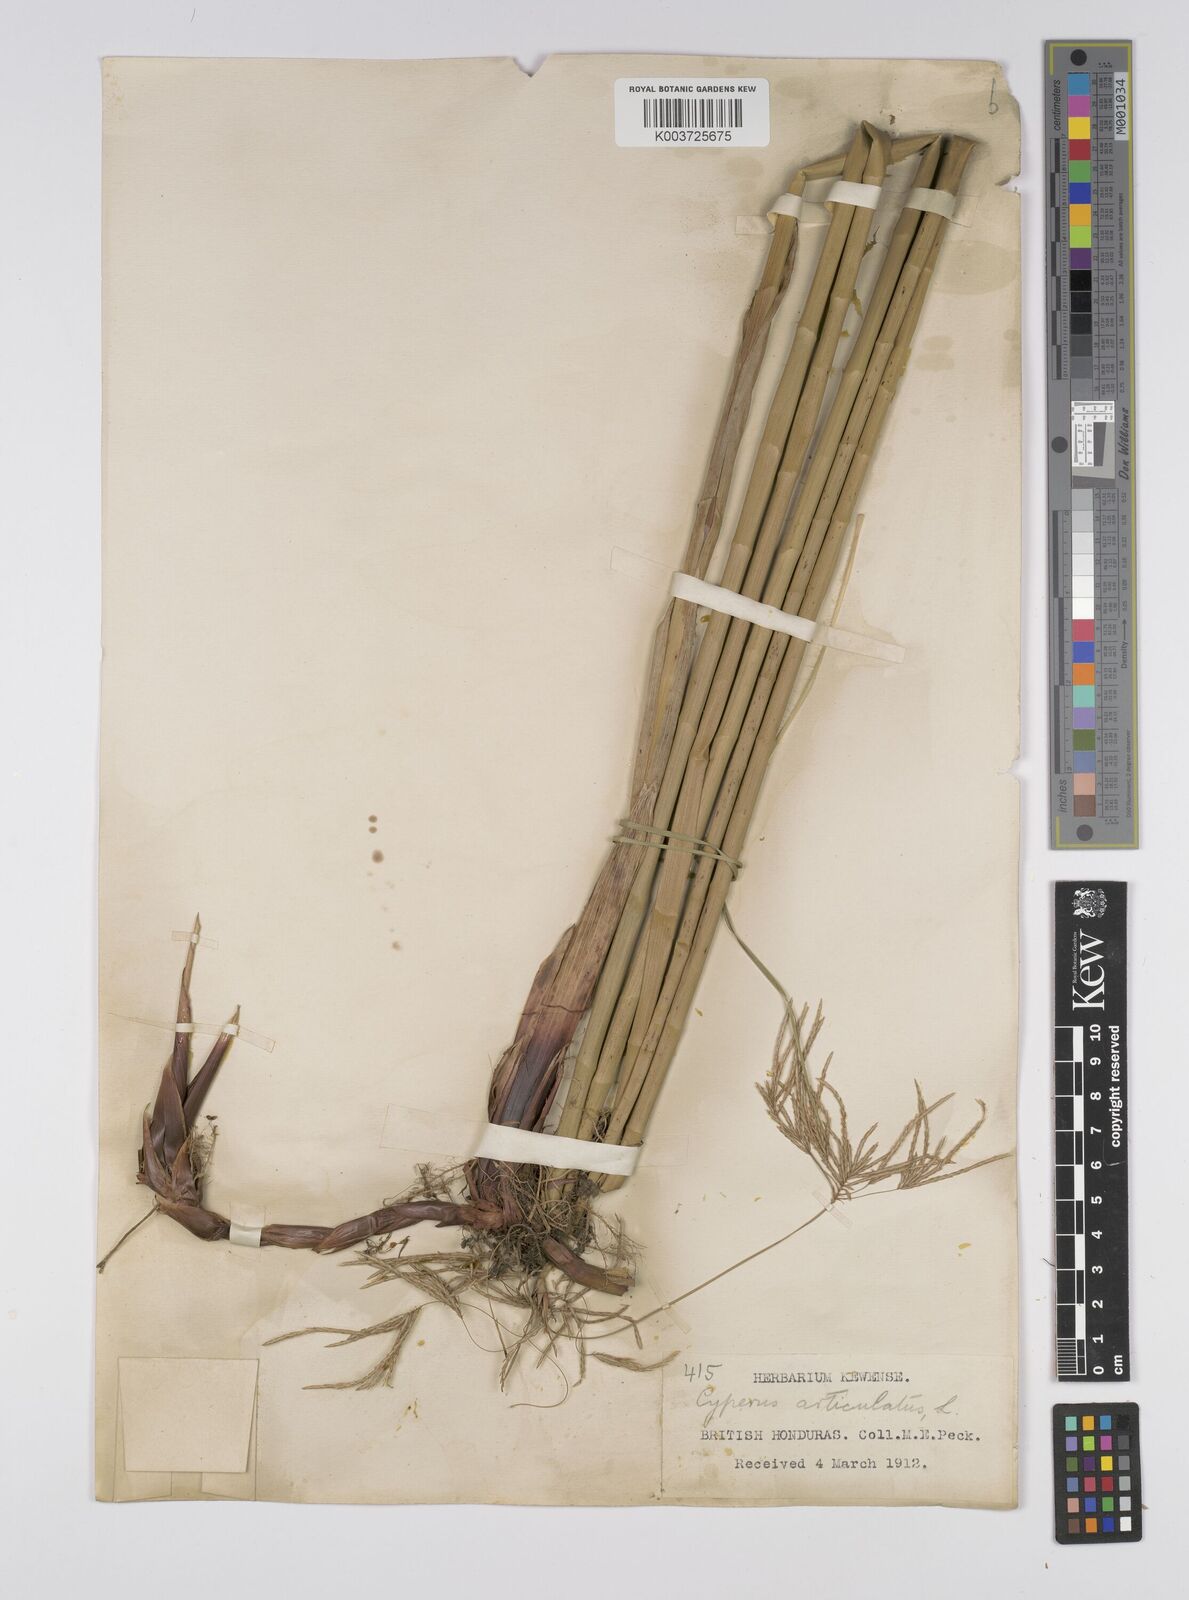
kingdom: Plantae
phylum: Tracheophyta
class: Liliopsida
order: Poales
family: Cyperaceae
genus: Cyperus
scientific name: Cyperus articulatus
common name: Jointed flatsedge
